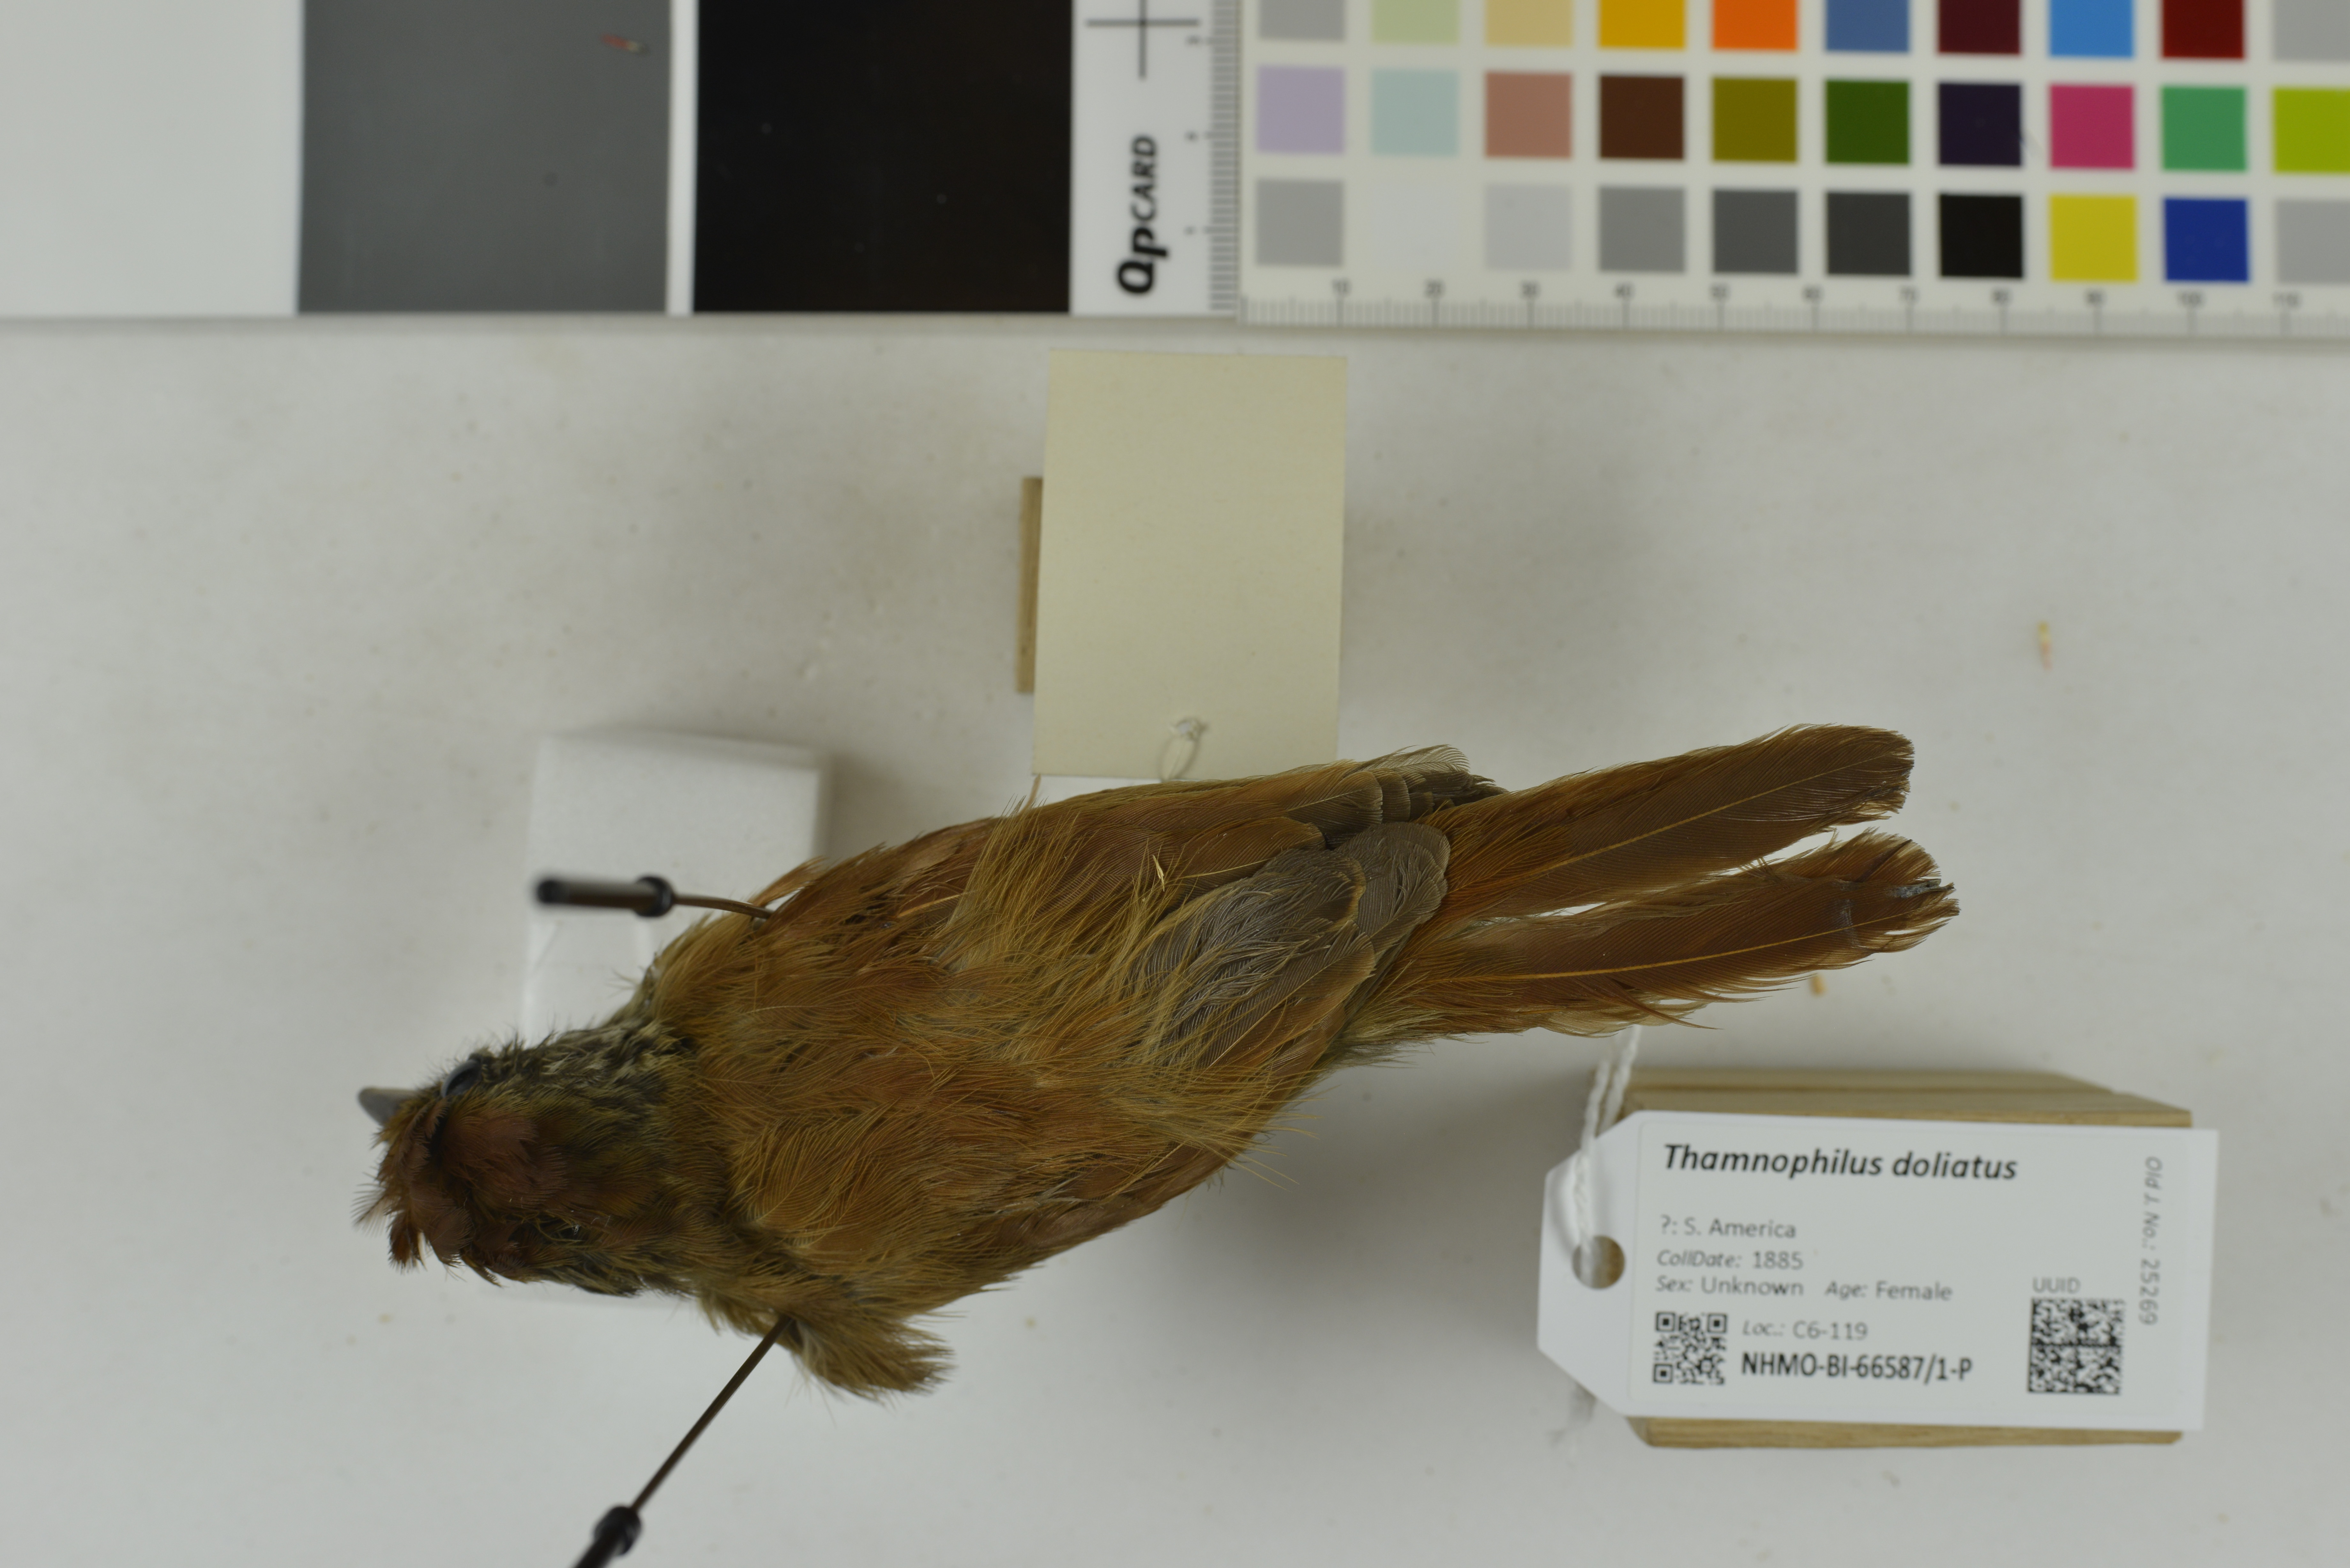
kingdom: Animalia
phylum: Chordata
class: Aves
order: Passeriformes
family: Thamnophilidae
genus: Thamnophilus
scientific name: Thamnophilus doliatus
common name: Barred antshrike
